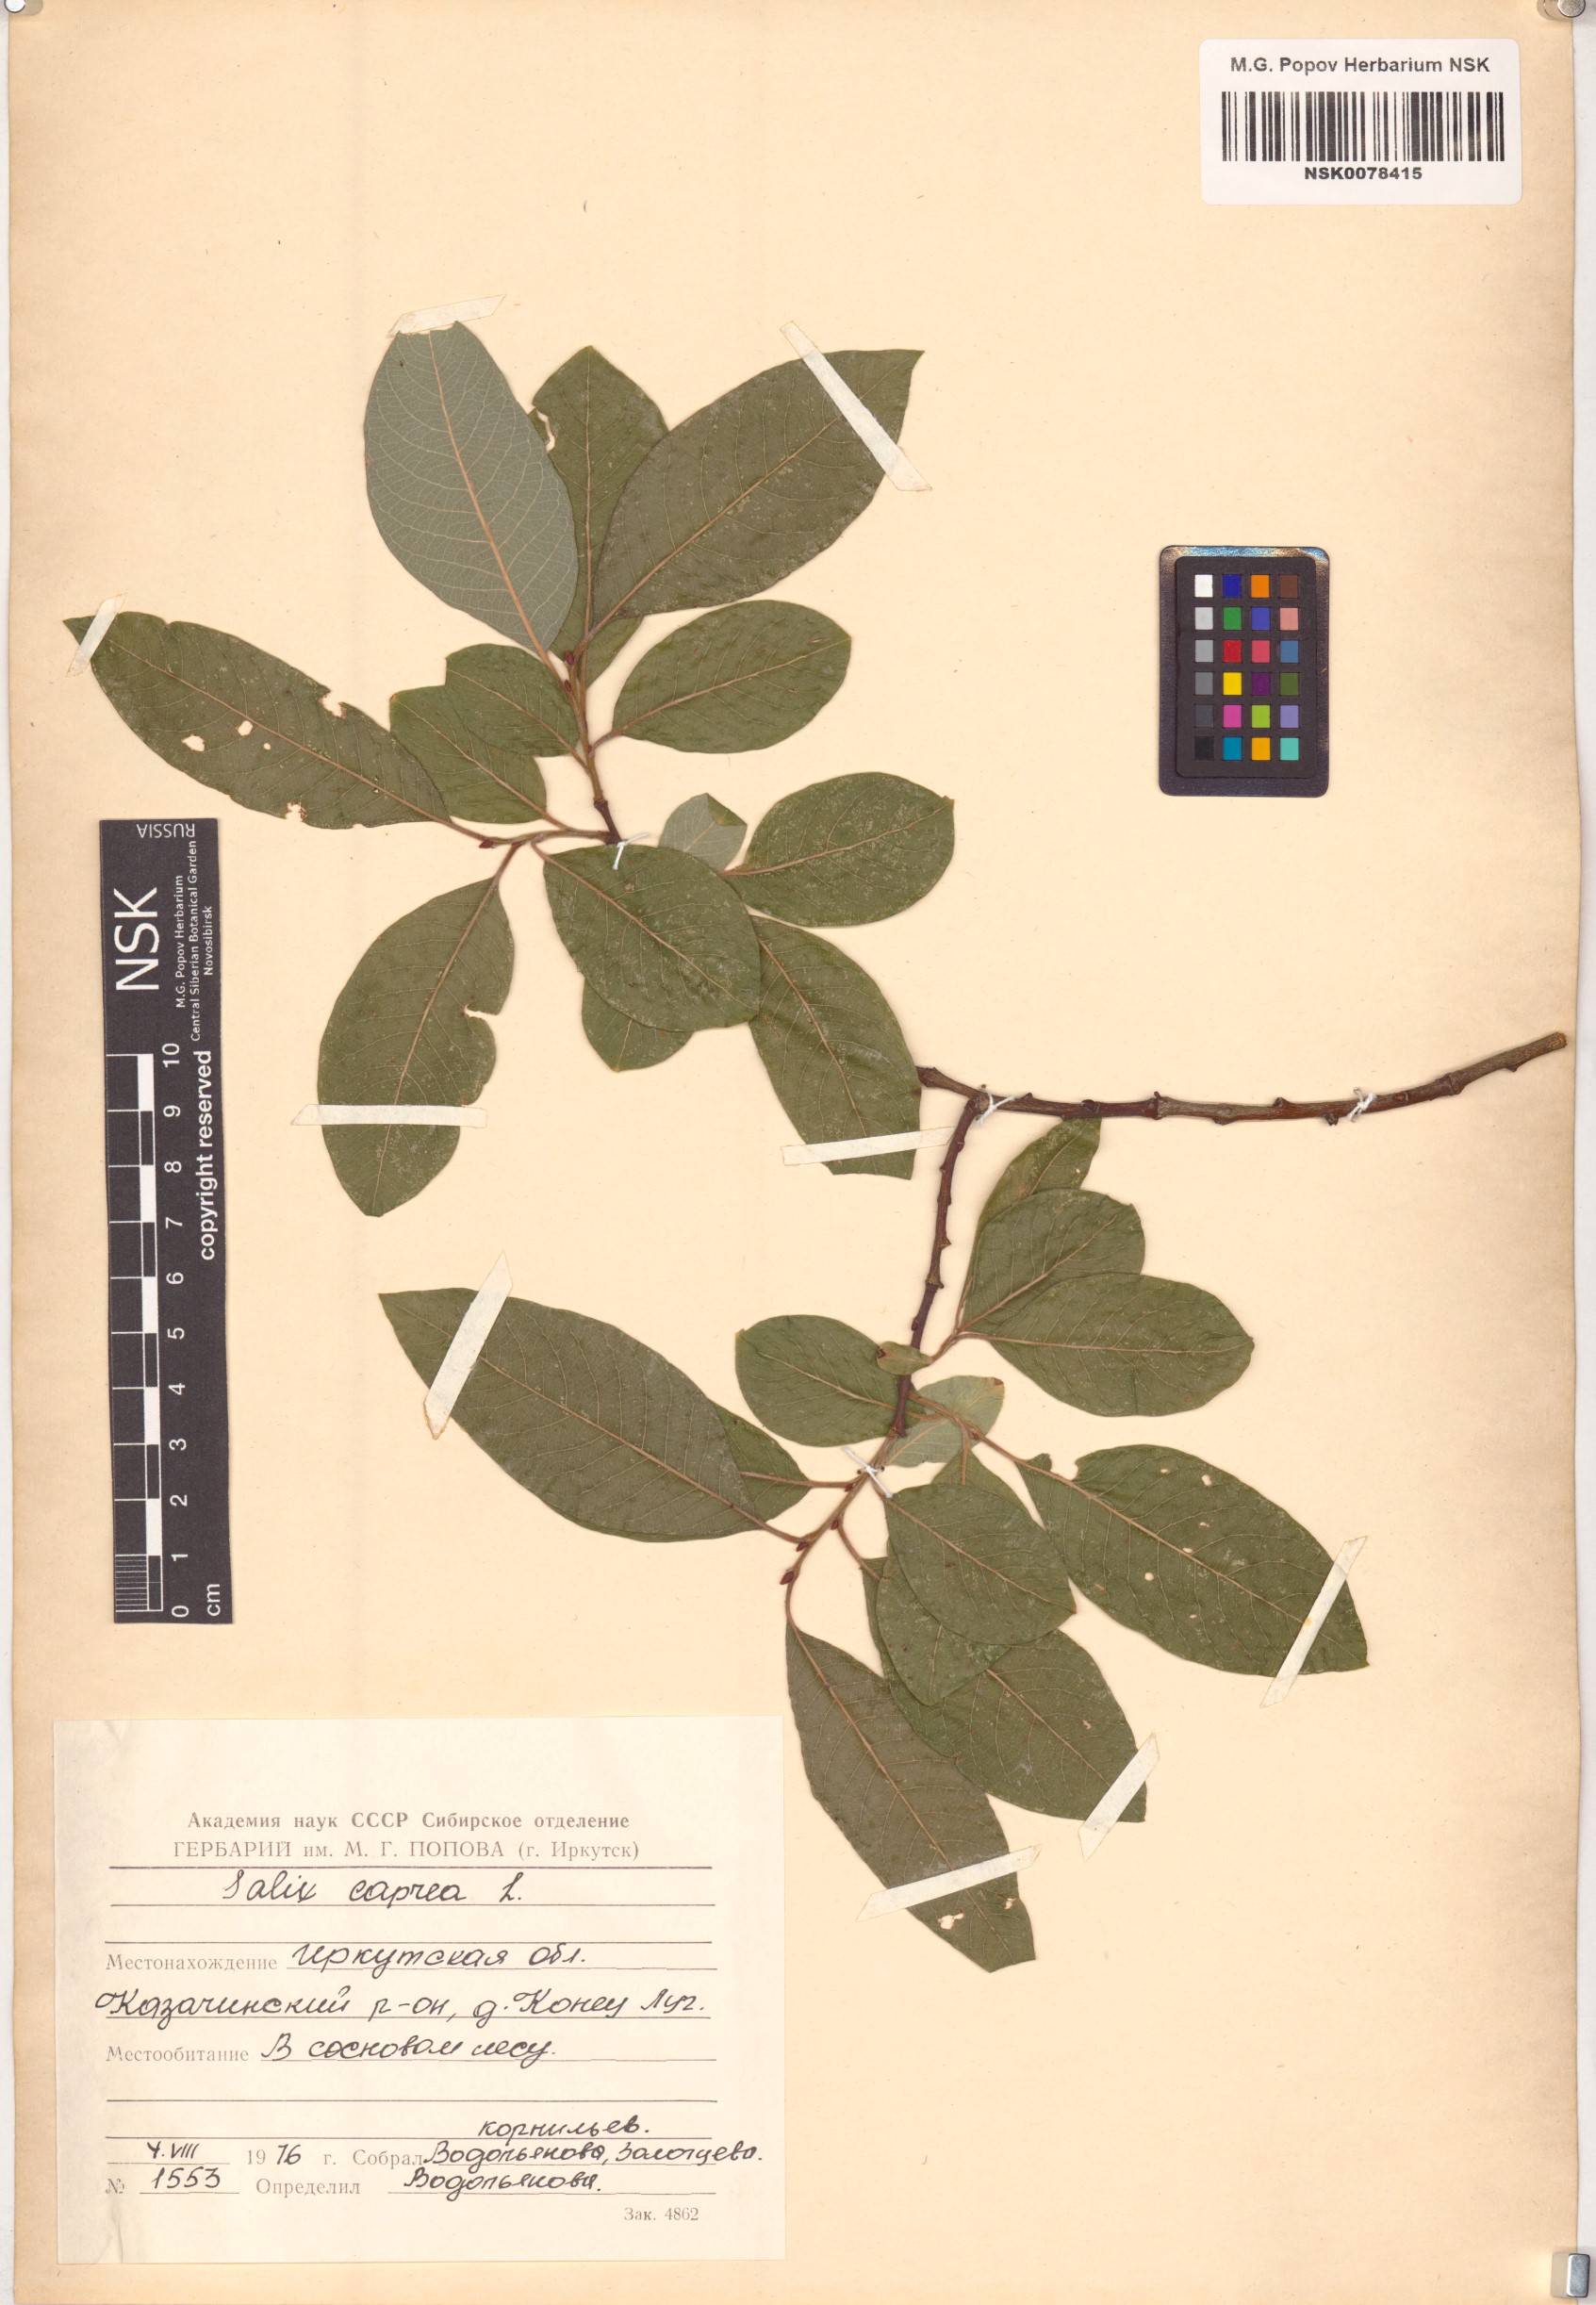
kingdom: Plantae
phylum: Tracheophyta
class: Magnoliopsida
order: Malpighiales
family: Salicaceae
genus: Salix
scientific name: Salix caprea
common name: Goat willow
